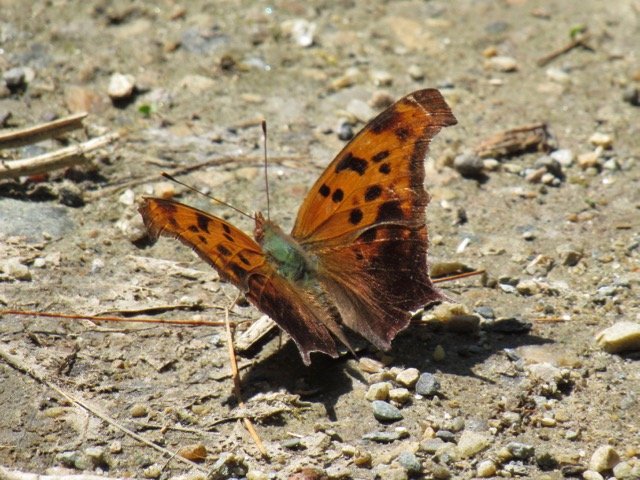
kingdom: Animalia
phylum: Arthropoda
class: Insecta
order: Lepidoptera
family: Nymphalidae
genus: Polygonia
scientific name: Polygonia interrogationis
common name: Question Mark
